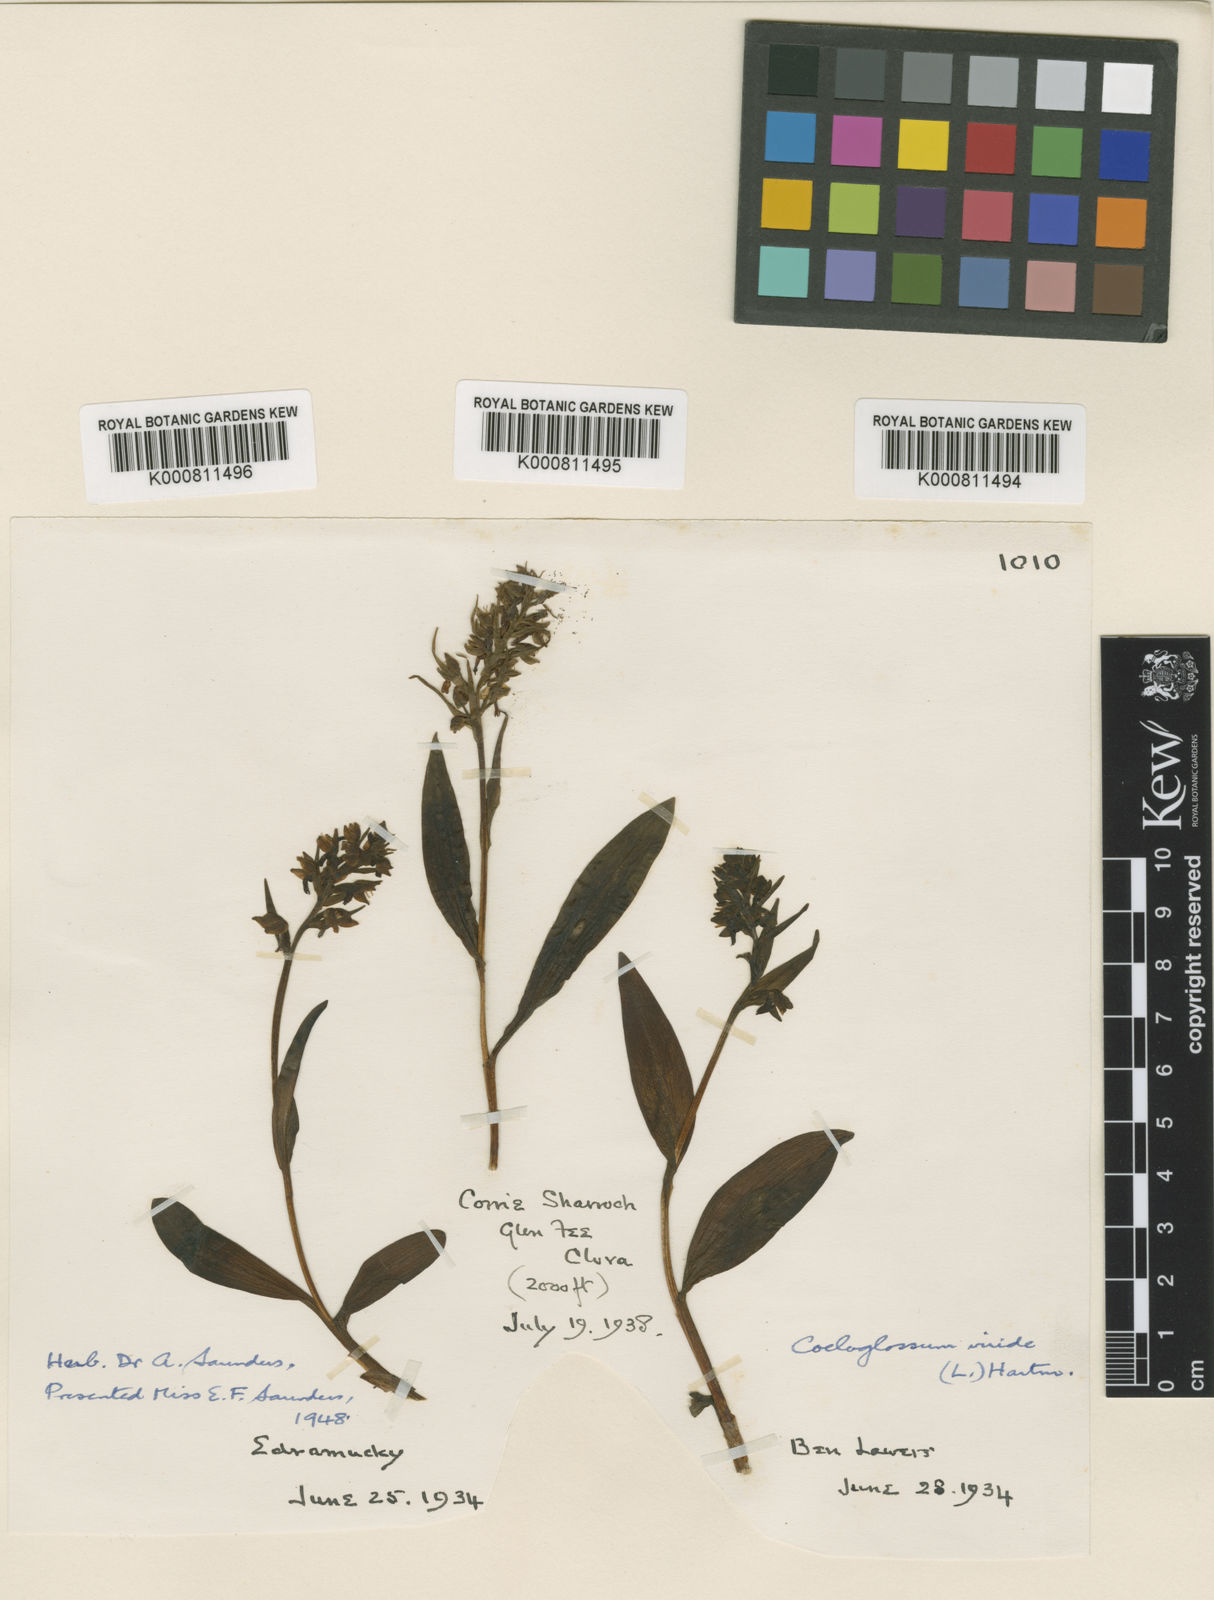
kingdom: Plantae
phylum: Tracheophyta
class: Liliopsida
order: Asparagales
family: Orchidaceae
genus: Dactylorhiza
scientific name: Dactylorhiza viridis
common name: Longbract frog orchid
